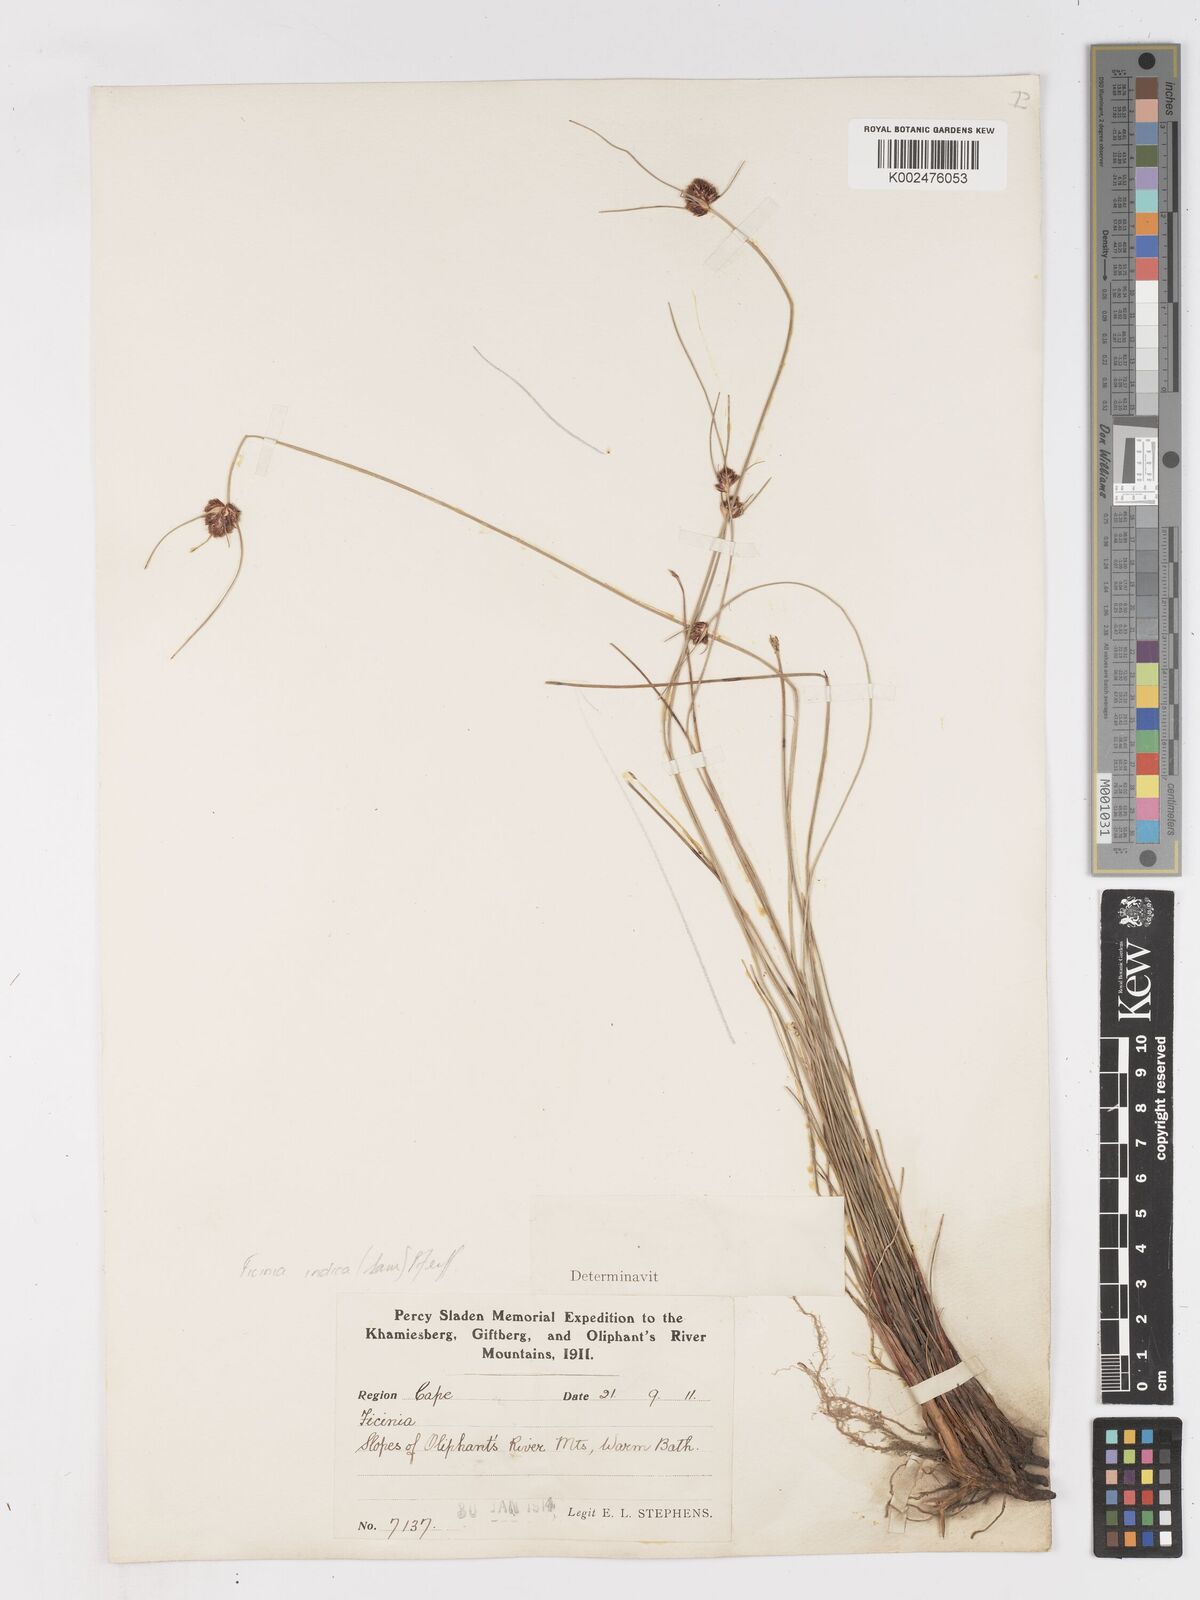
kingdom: Plantae
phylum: Tracheophyta
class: Liliopsida
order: Poales
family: Cyperaceae
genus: Ficinia
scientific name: Ficinia indica
